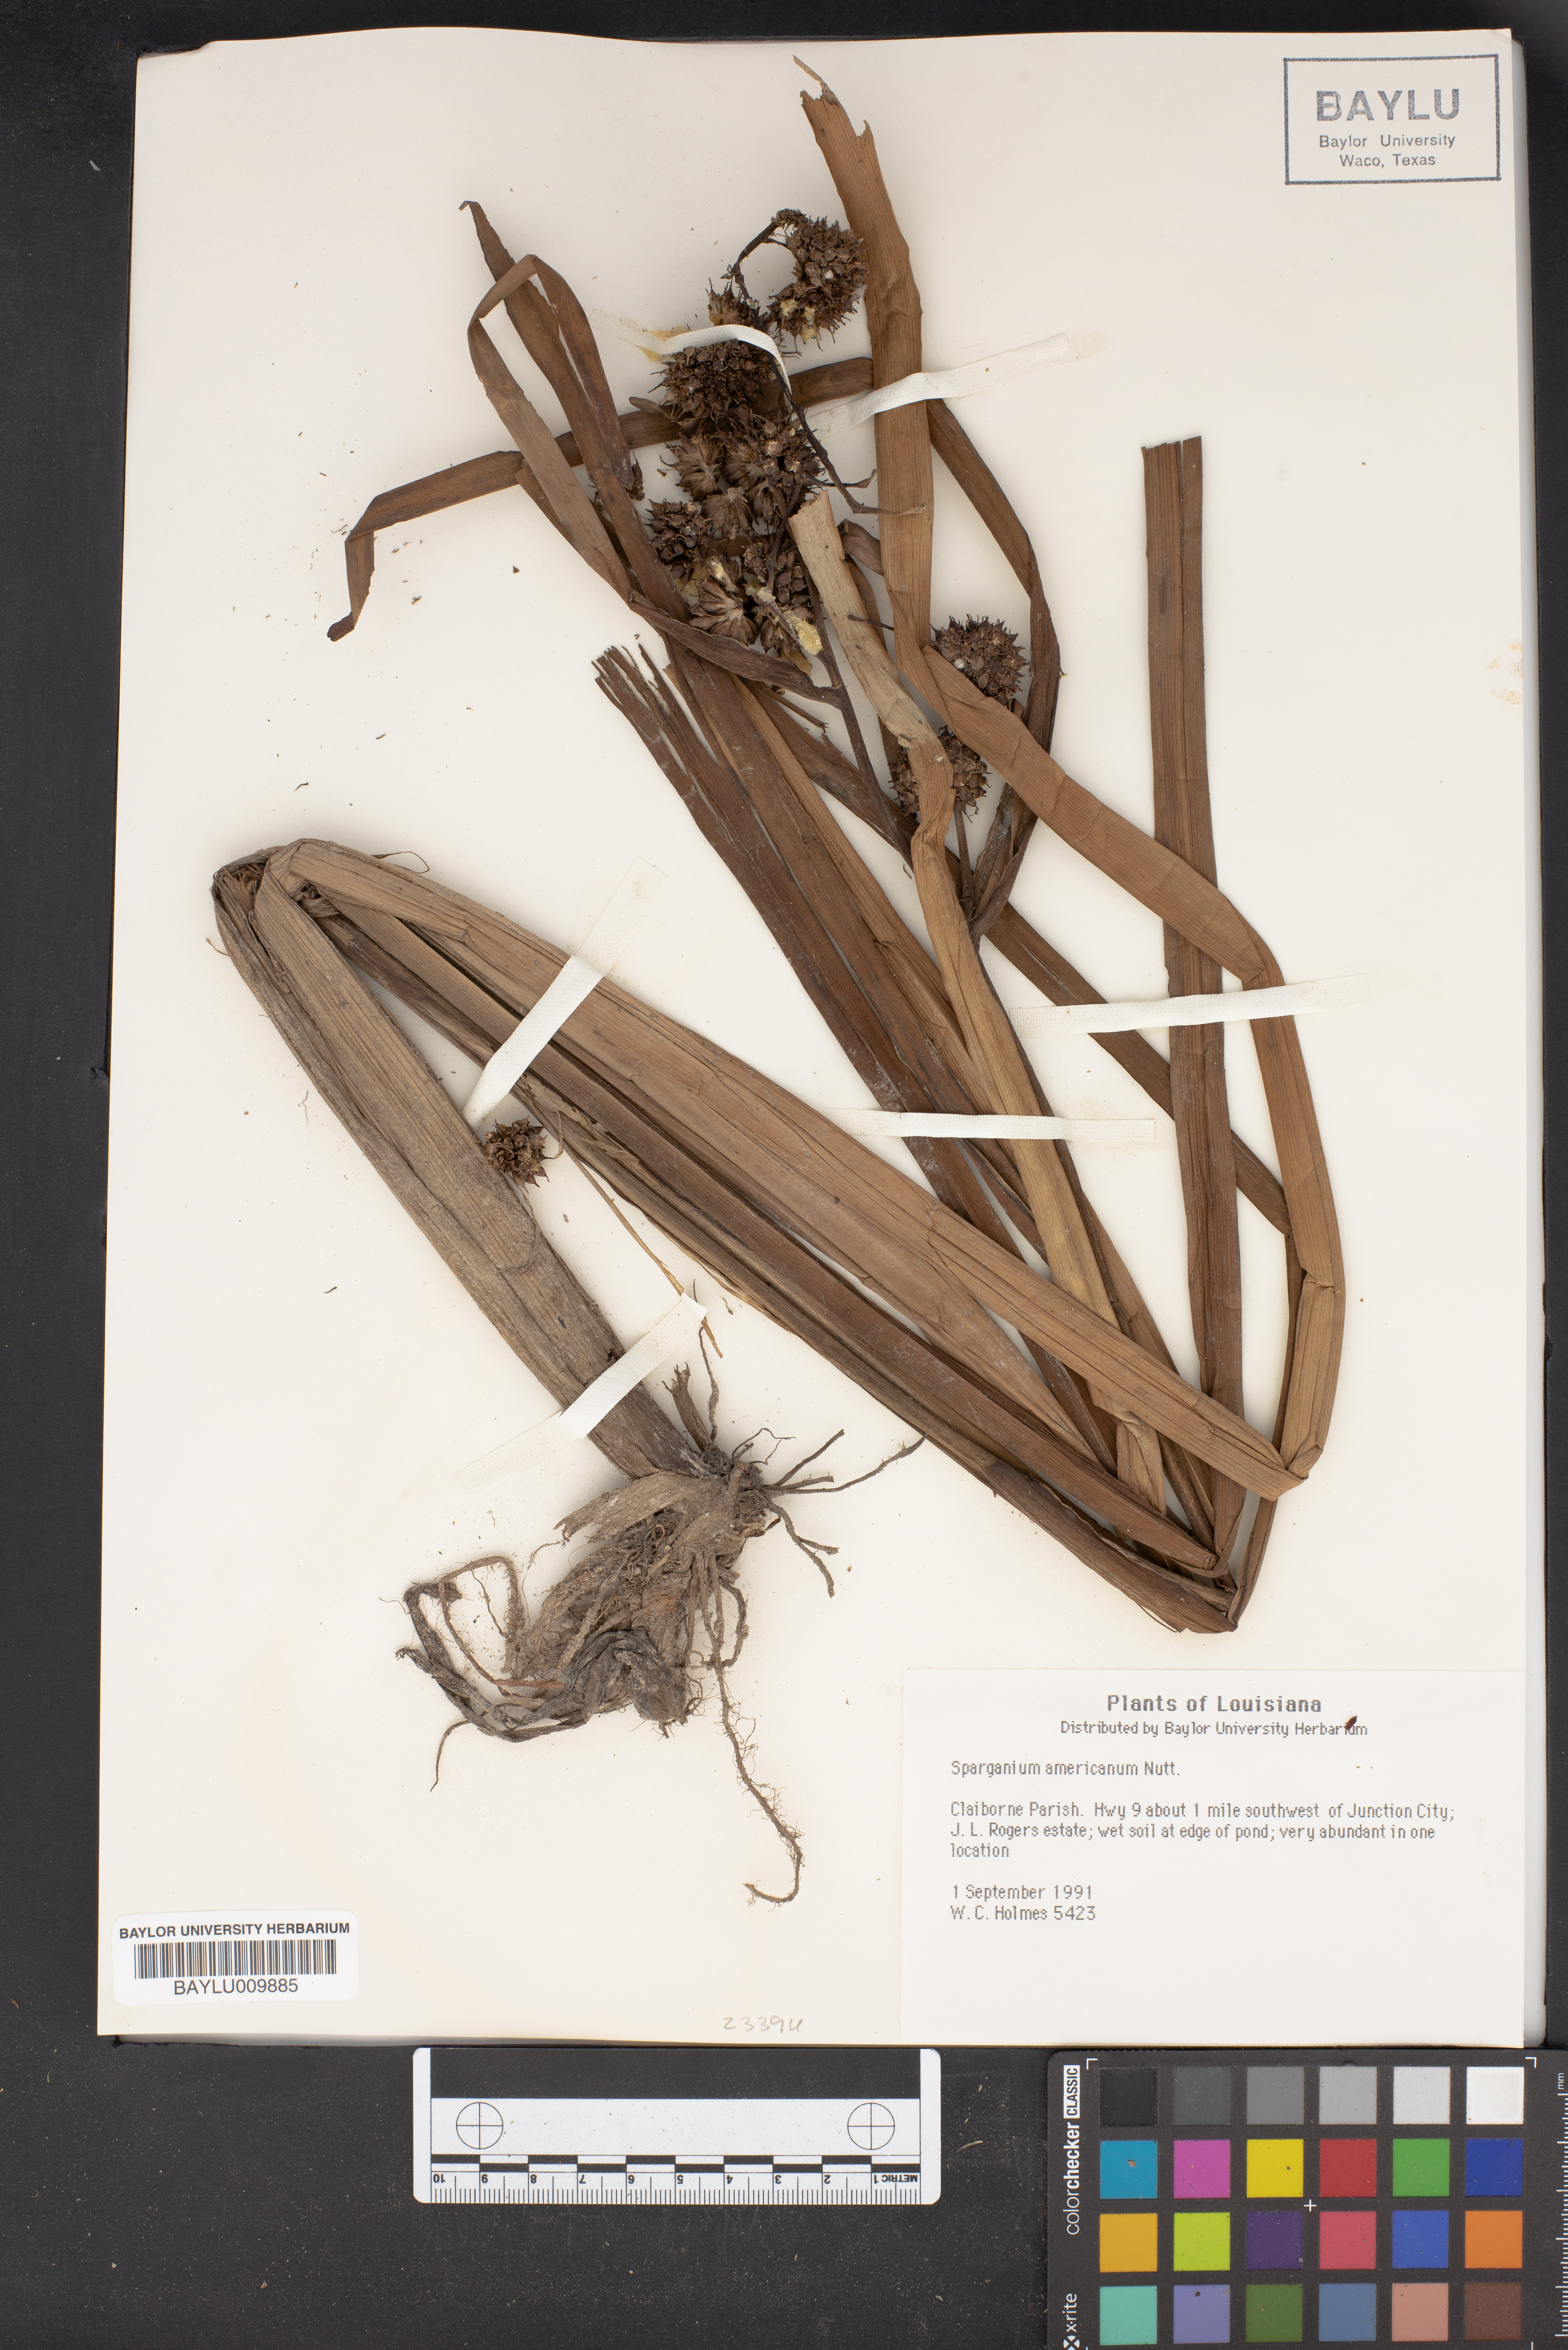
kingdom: Plantae
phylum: Tracheophyta
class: Liliopsida
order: Poales
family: Typhaceae
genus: Sparganium
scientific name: Sparganium americanum
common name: American burreed
